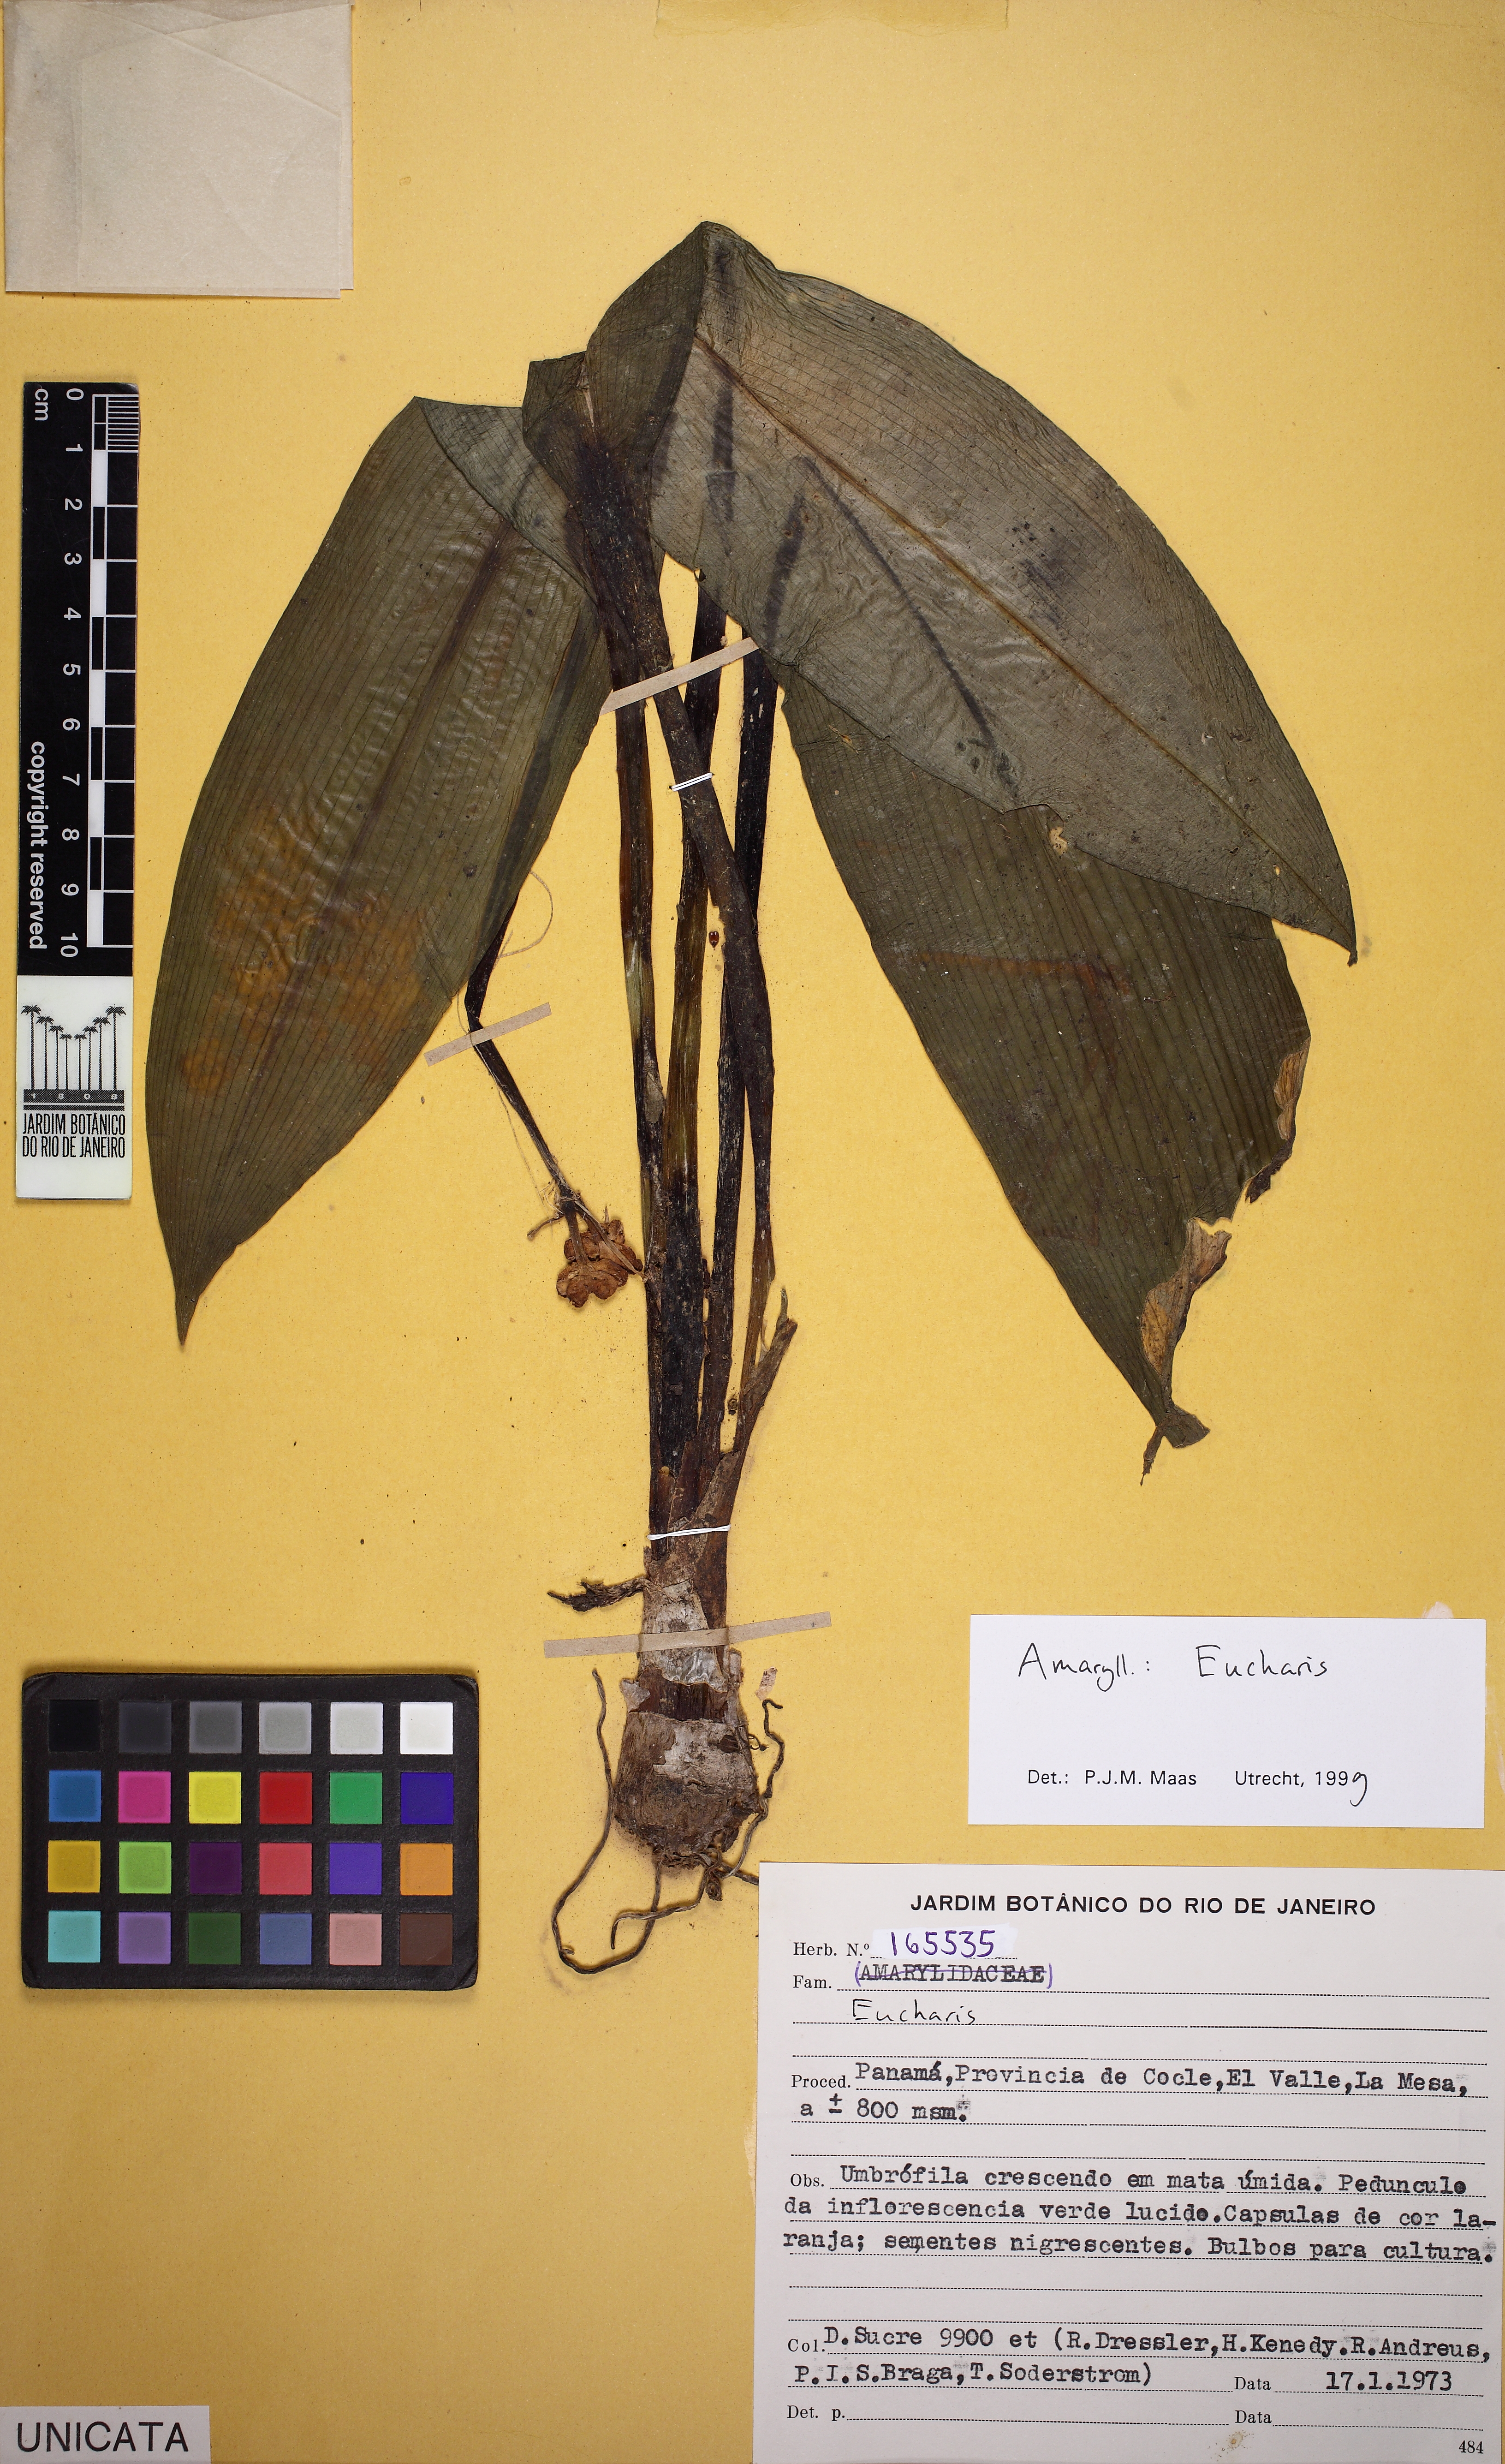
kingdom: Plantae
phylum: Tracheophyta
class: Liliopsida
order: Asparagales
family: Amaryllidaceae
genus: Urceolina
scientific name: Urceolina
